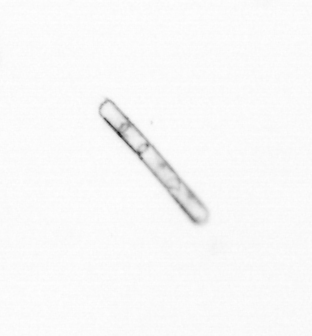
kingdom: Chromista
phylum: Ochrophyta
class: Bacillariophyceae
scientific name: Bacillariophyceae
